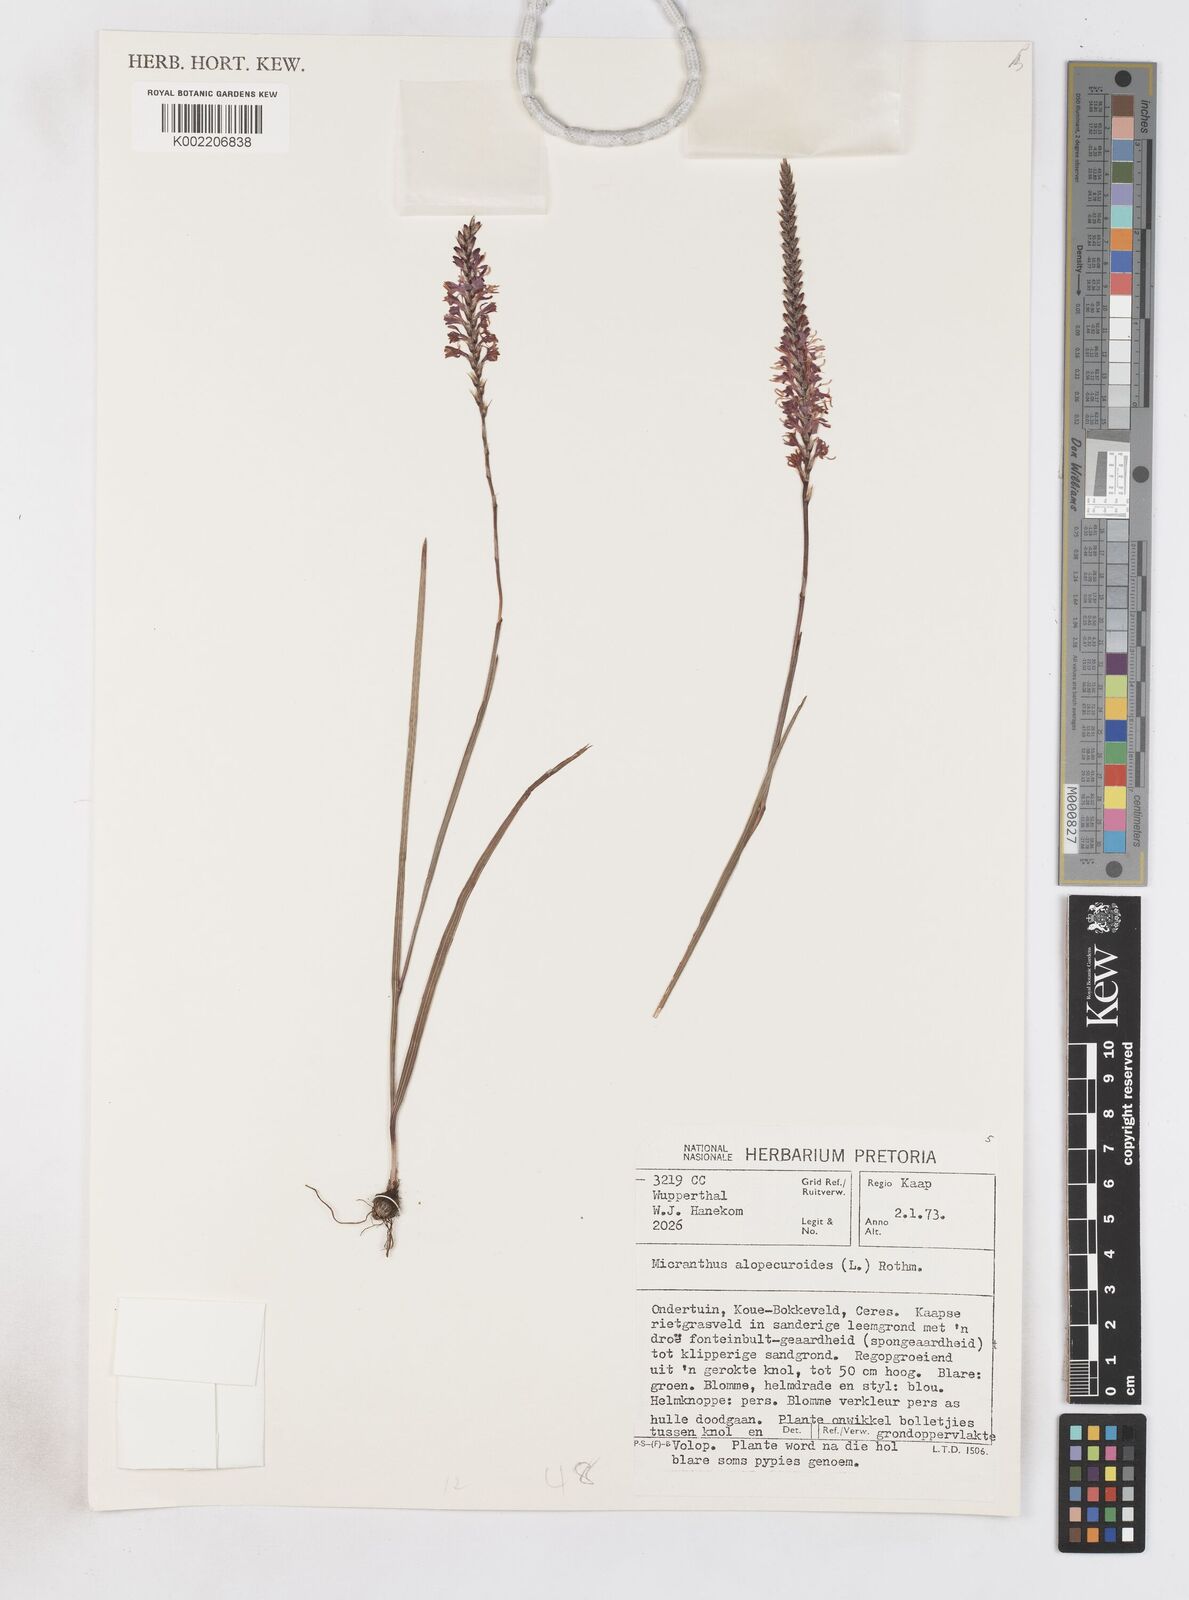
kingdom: Plantae
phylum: Tracheophyta
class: Liliopsida
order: Asparagales
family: Iridaceae
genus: Micranthus
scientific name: Micranthus alopecuroides
